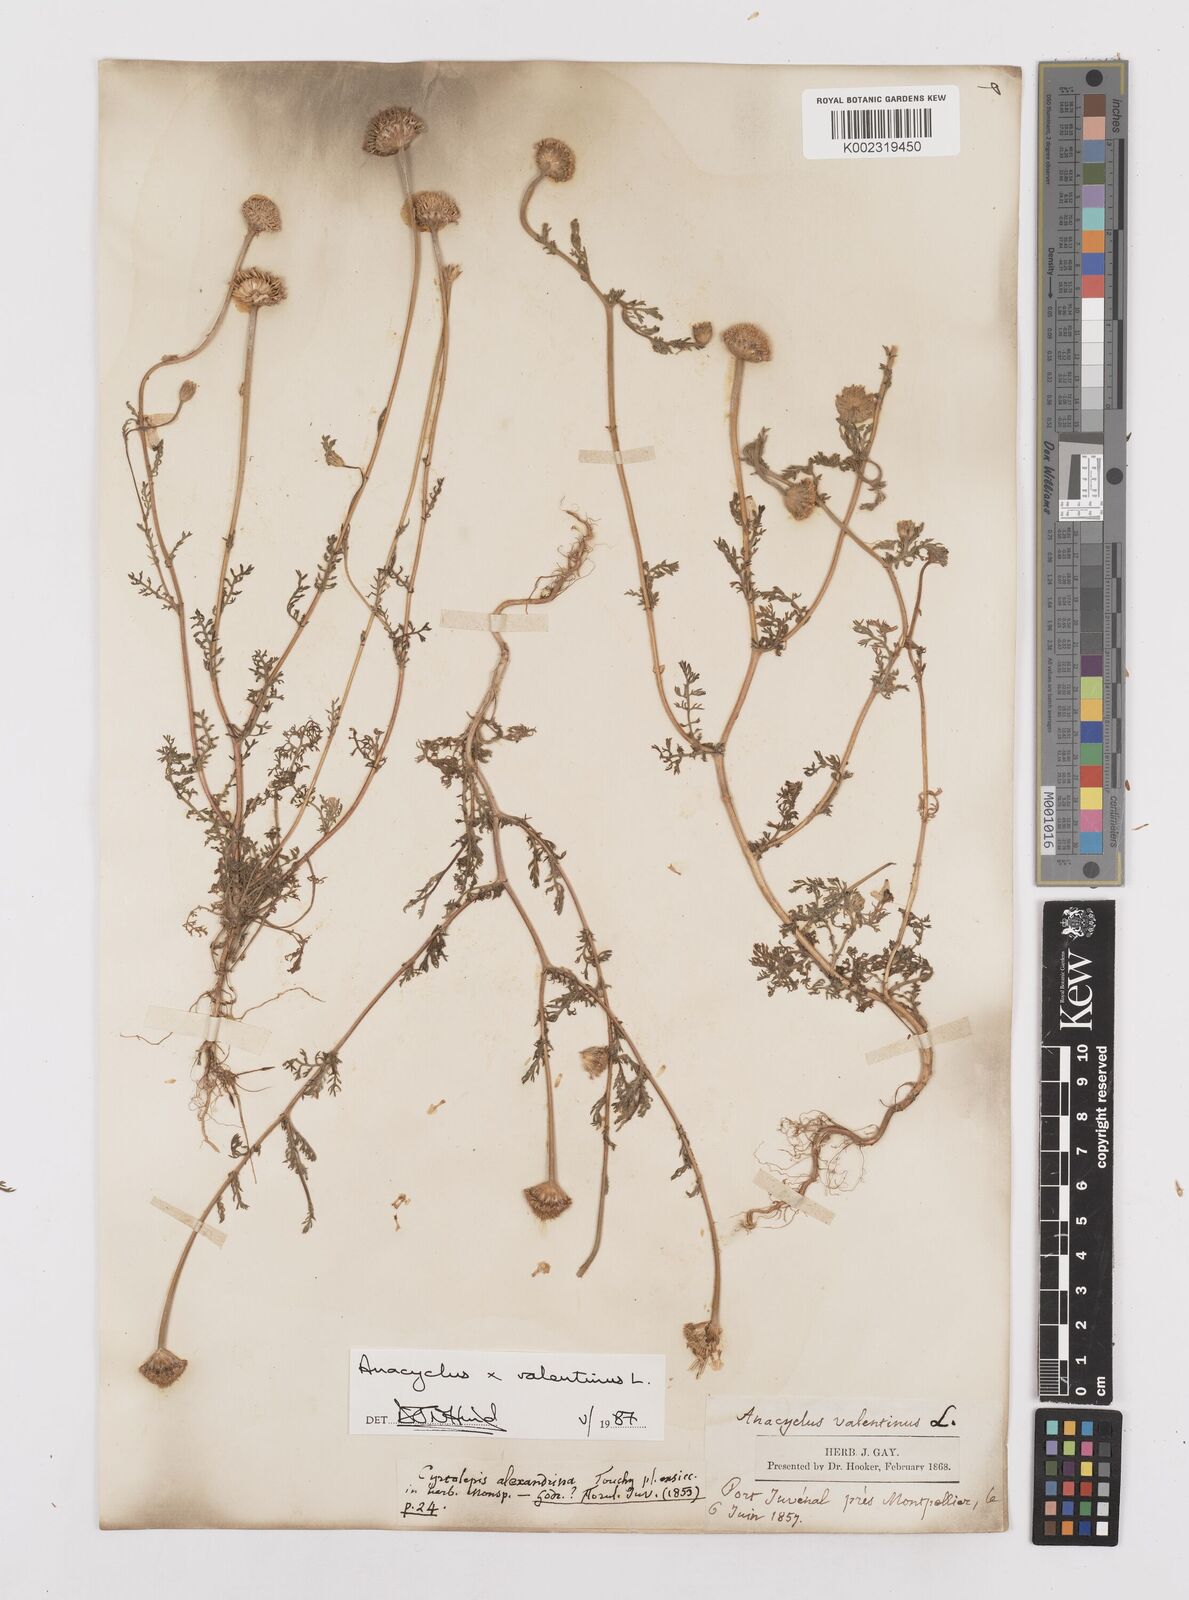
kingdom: Plantae
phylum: Tracheophyta
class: Magnoliopsida
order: Asterales
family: Asteraceae
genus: Anacyclus
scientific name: Anacyclus valentinus
